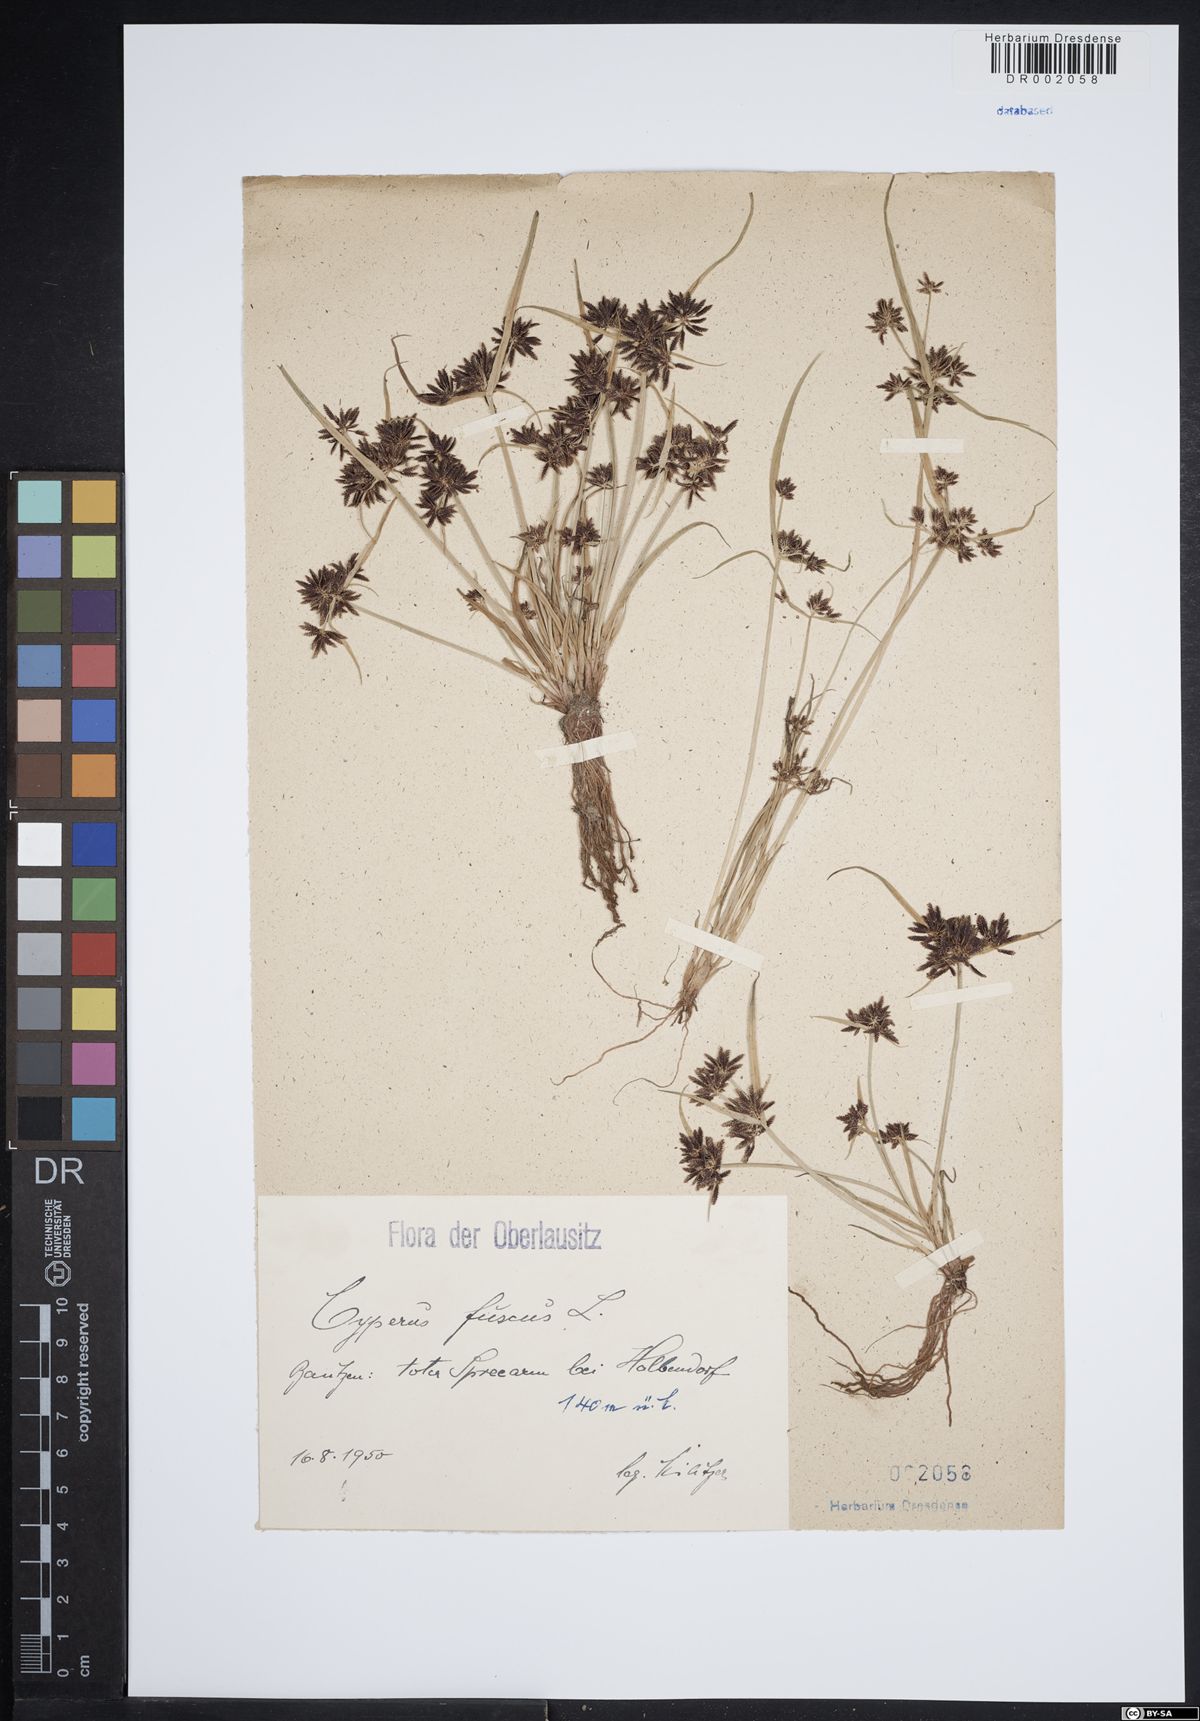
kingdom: Plantae
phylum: Tracheophyta
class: Liliopsida
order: Poales
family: Cyperaceae
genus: Cyperus
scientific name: Cyperus fuscus
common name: Brown galingale
